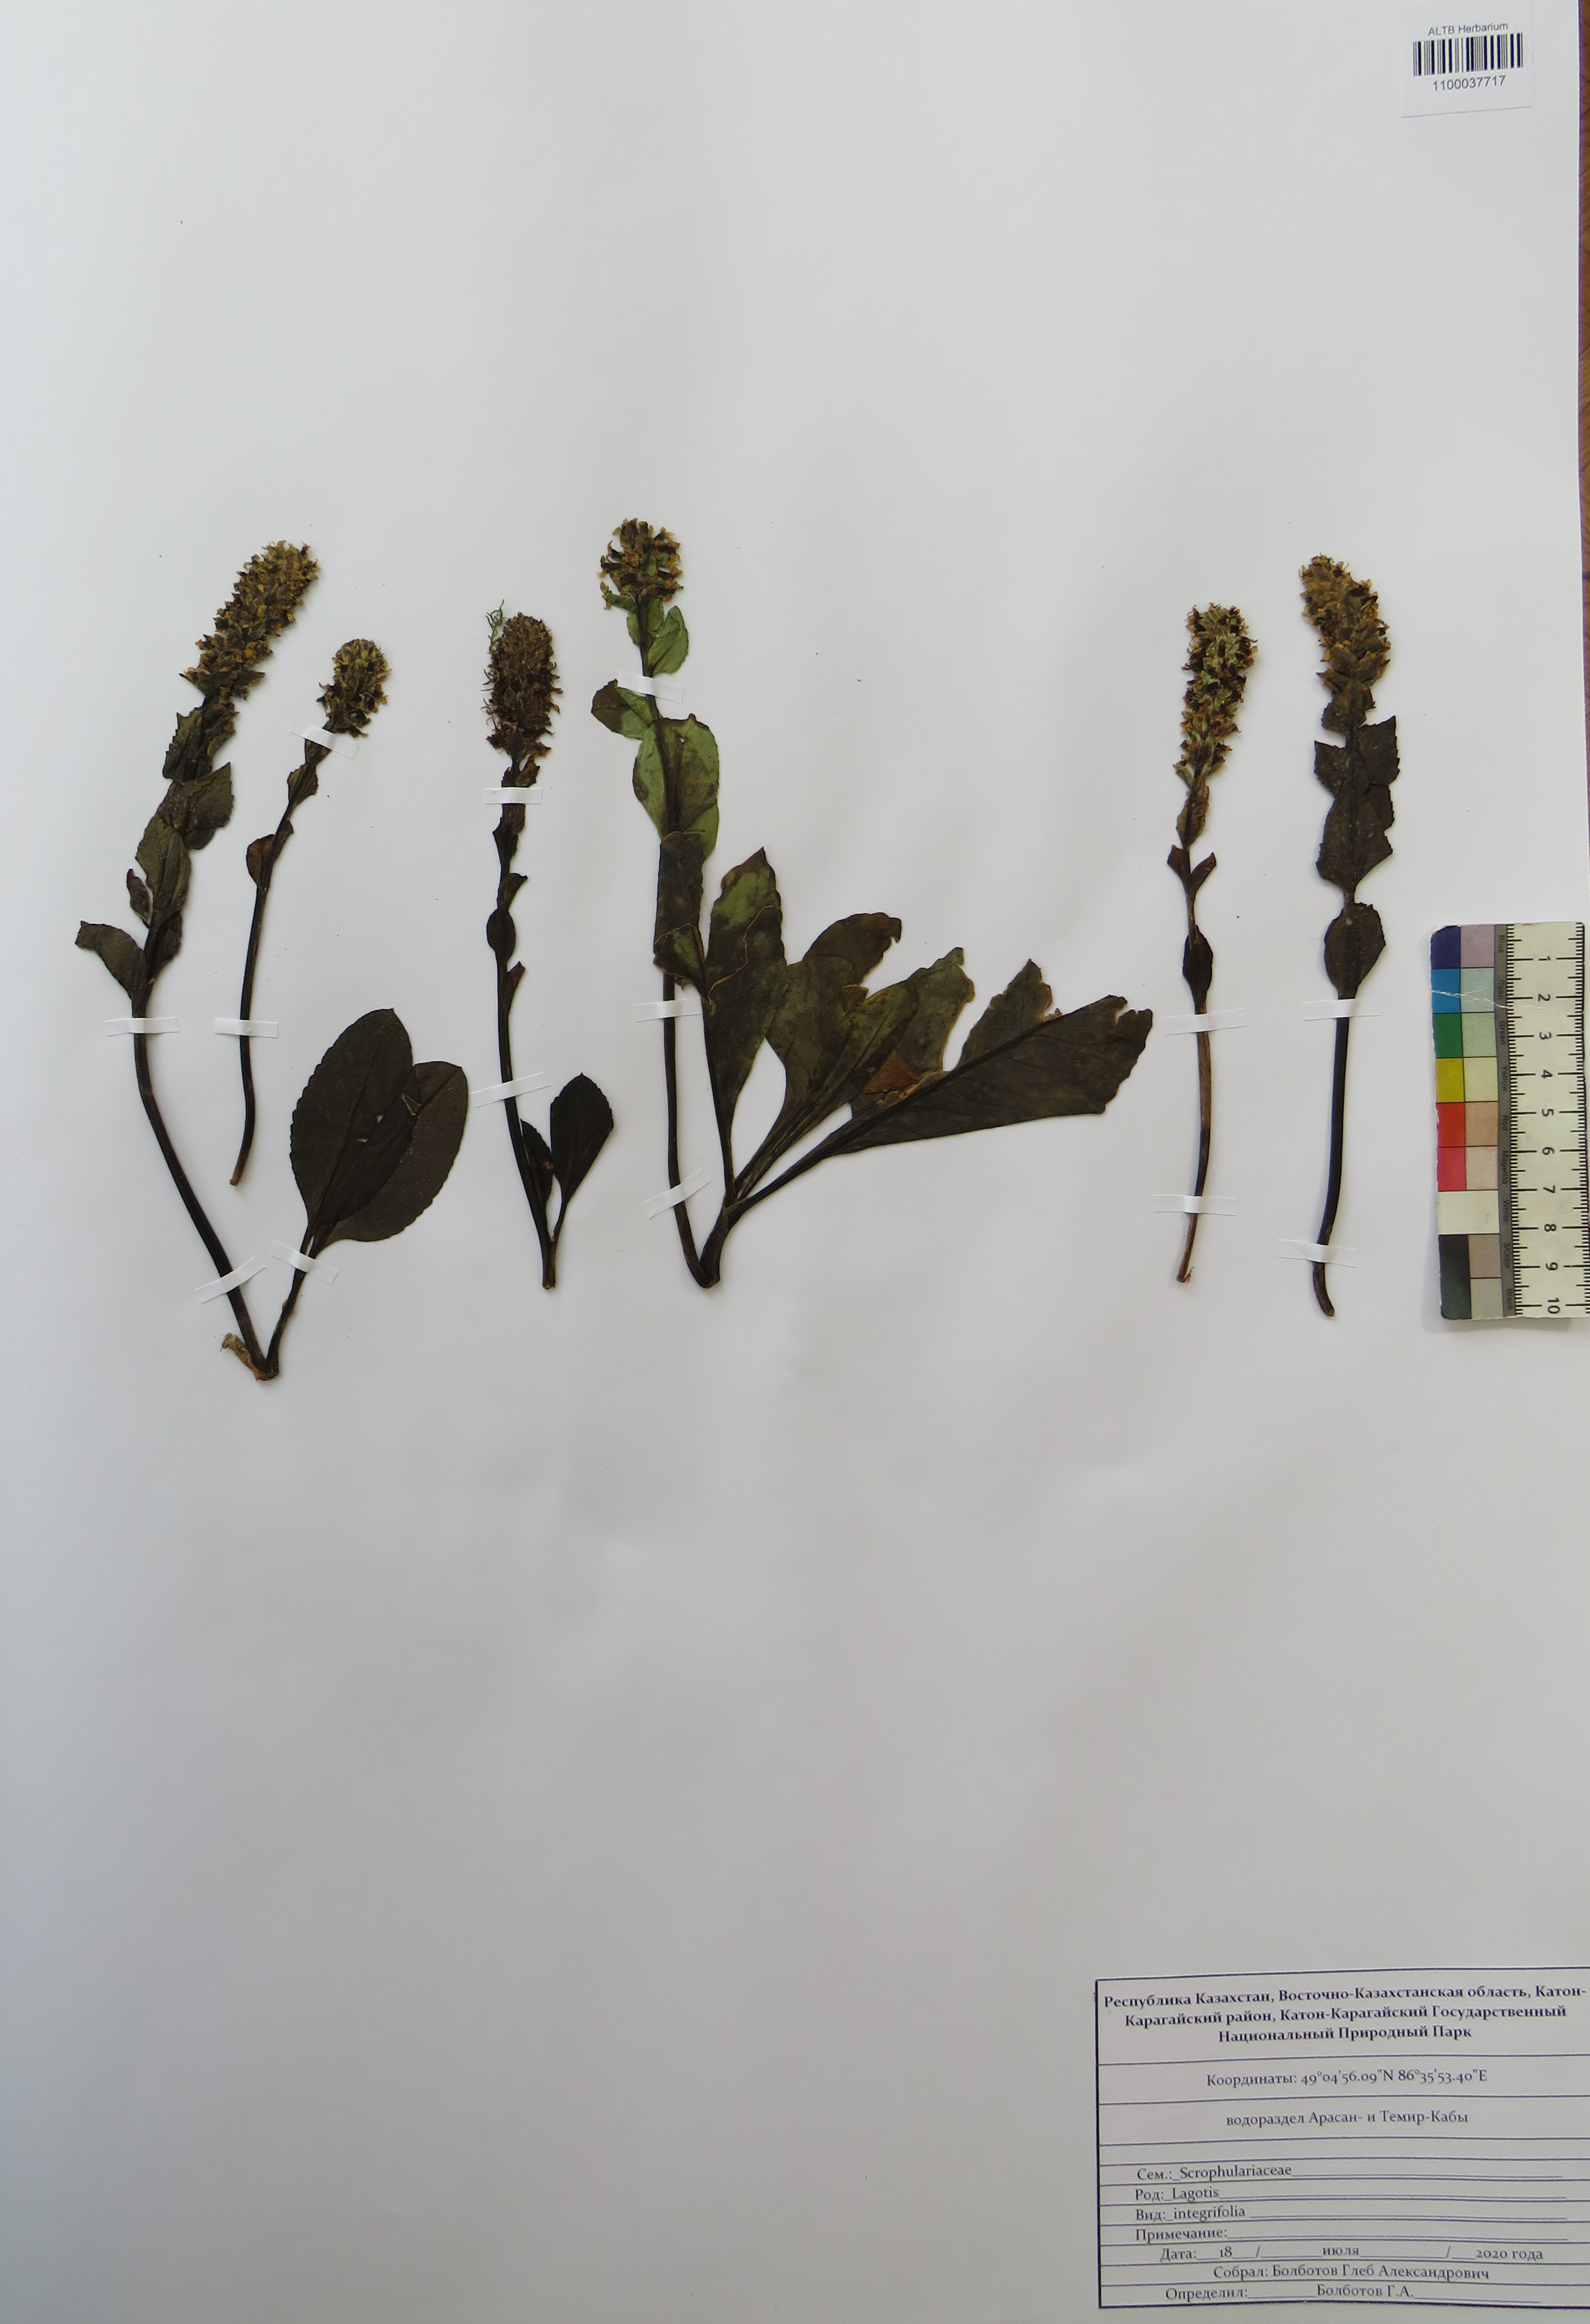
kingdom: Plantae
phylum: Tracheophyta
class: Magnoliopsida
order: Lamiales
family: Plantaginaceae
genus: Lagotis
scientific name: Lagotis integrifolia
